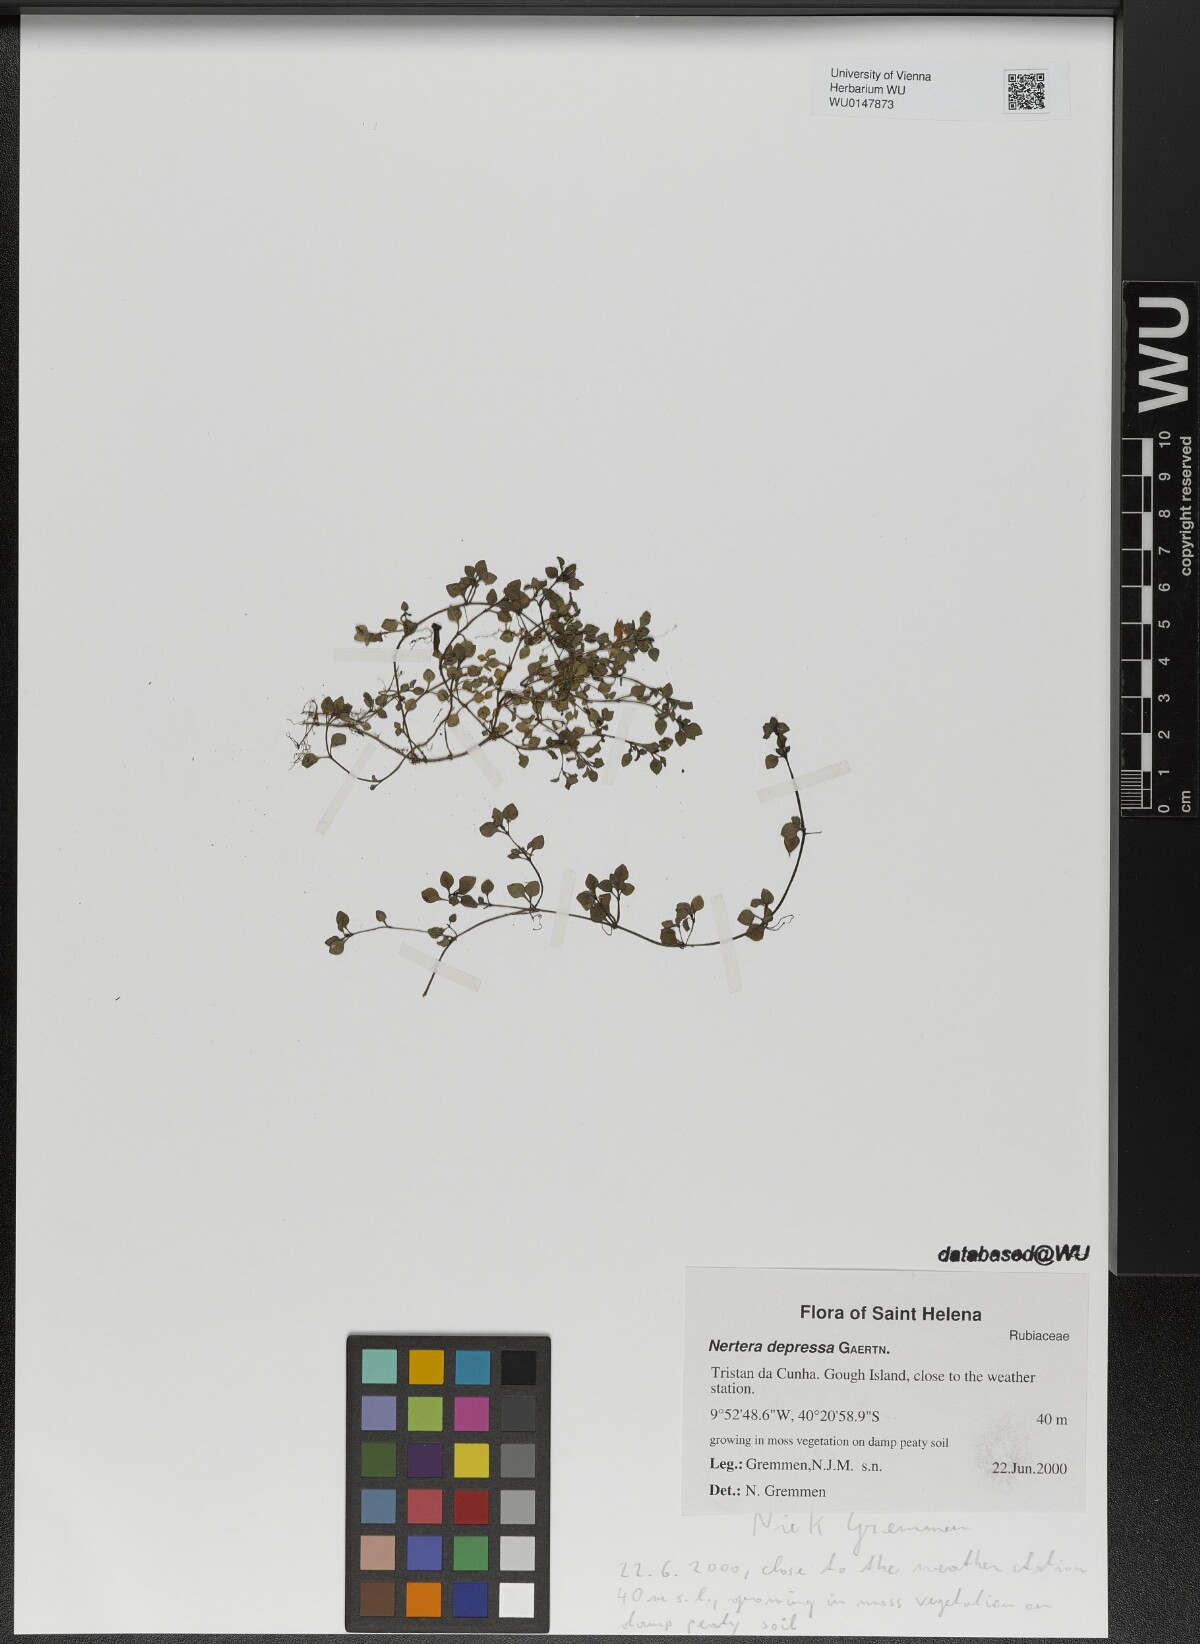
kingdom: Plantae
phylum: Tracheophyta
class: Magnoliopsida
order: Gentianales
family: Rubiaceae
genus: Nertera
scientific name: Nertera granadensis
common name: Beadplant
